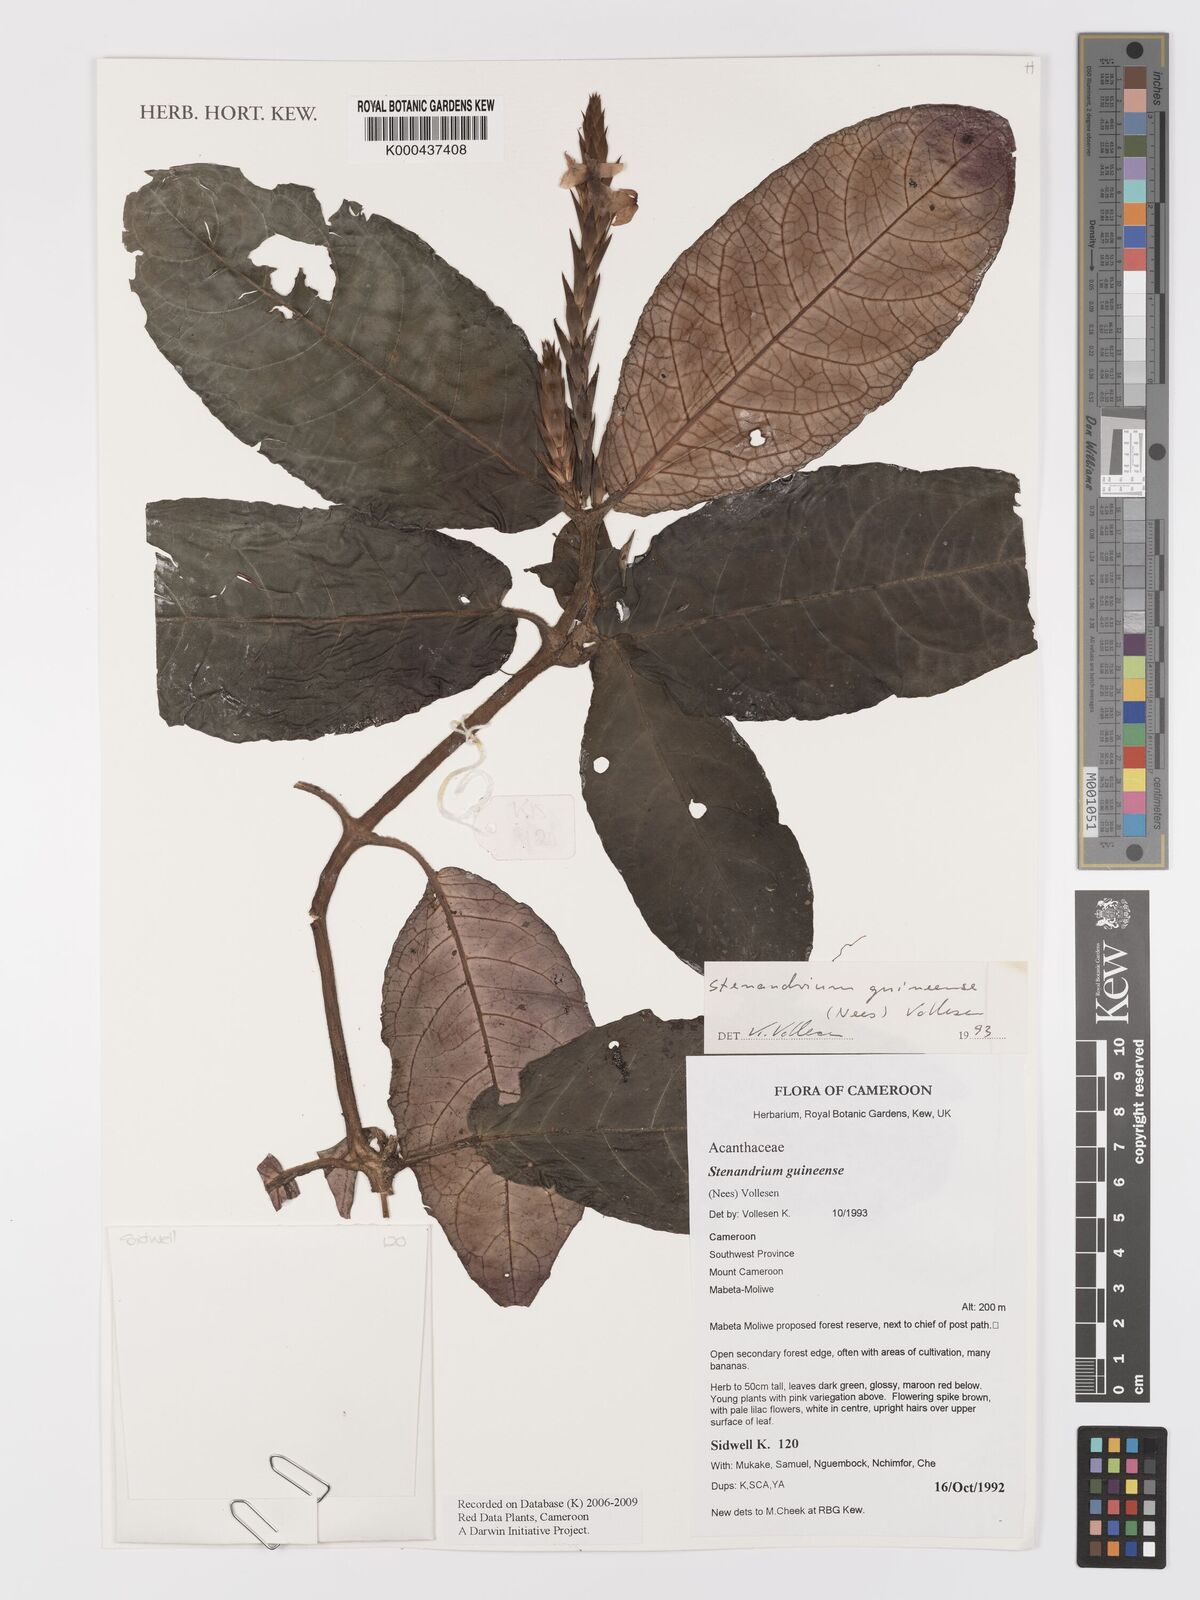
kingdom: Plantae
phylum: Tracheophyta
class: Magnoliopsida
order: Lamiales
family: Acanthaceae
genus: Stenandriopsis
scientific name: Stenandriopsis guineensis
